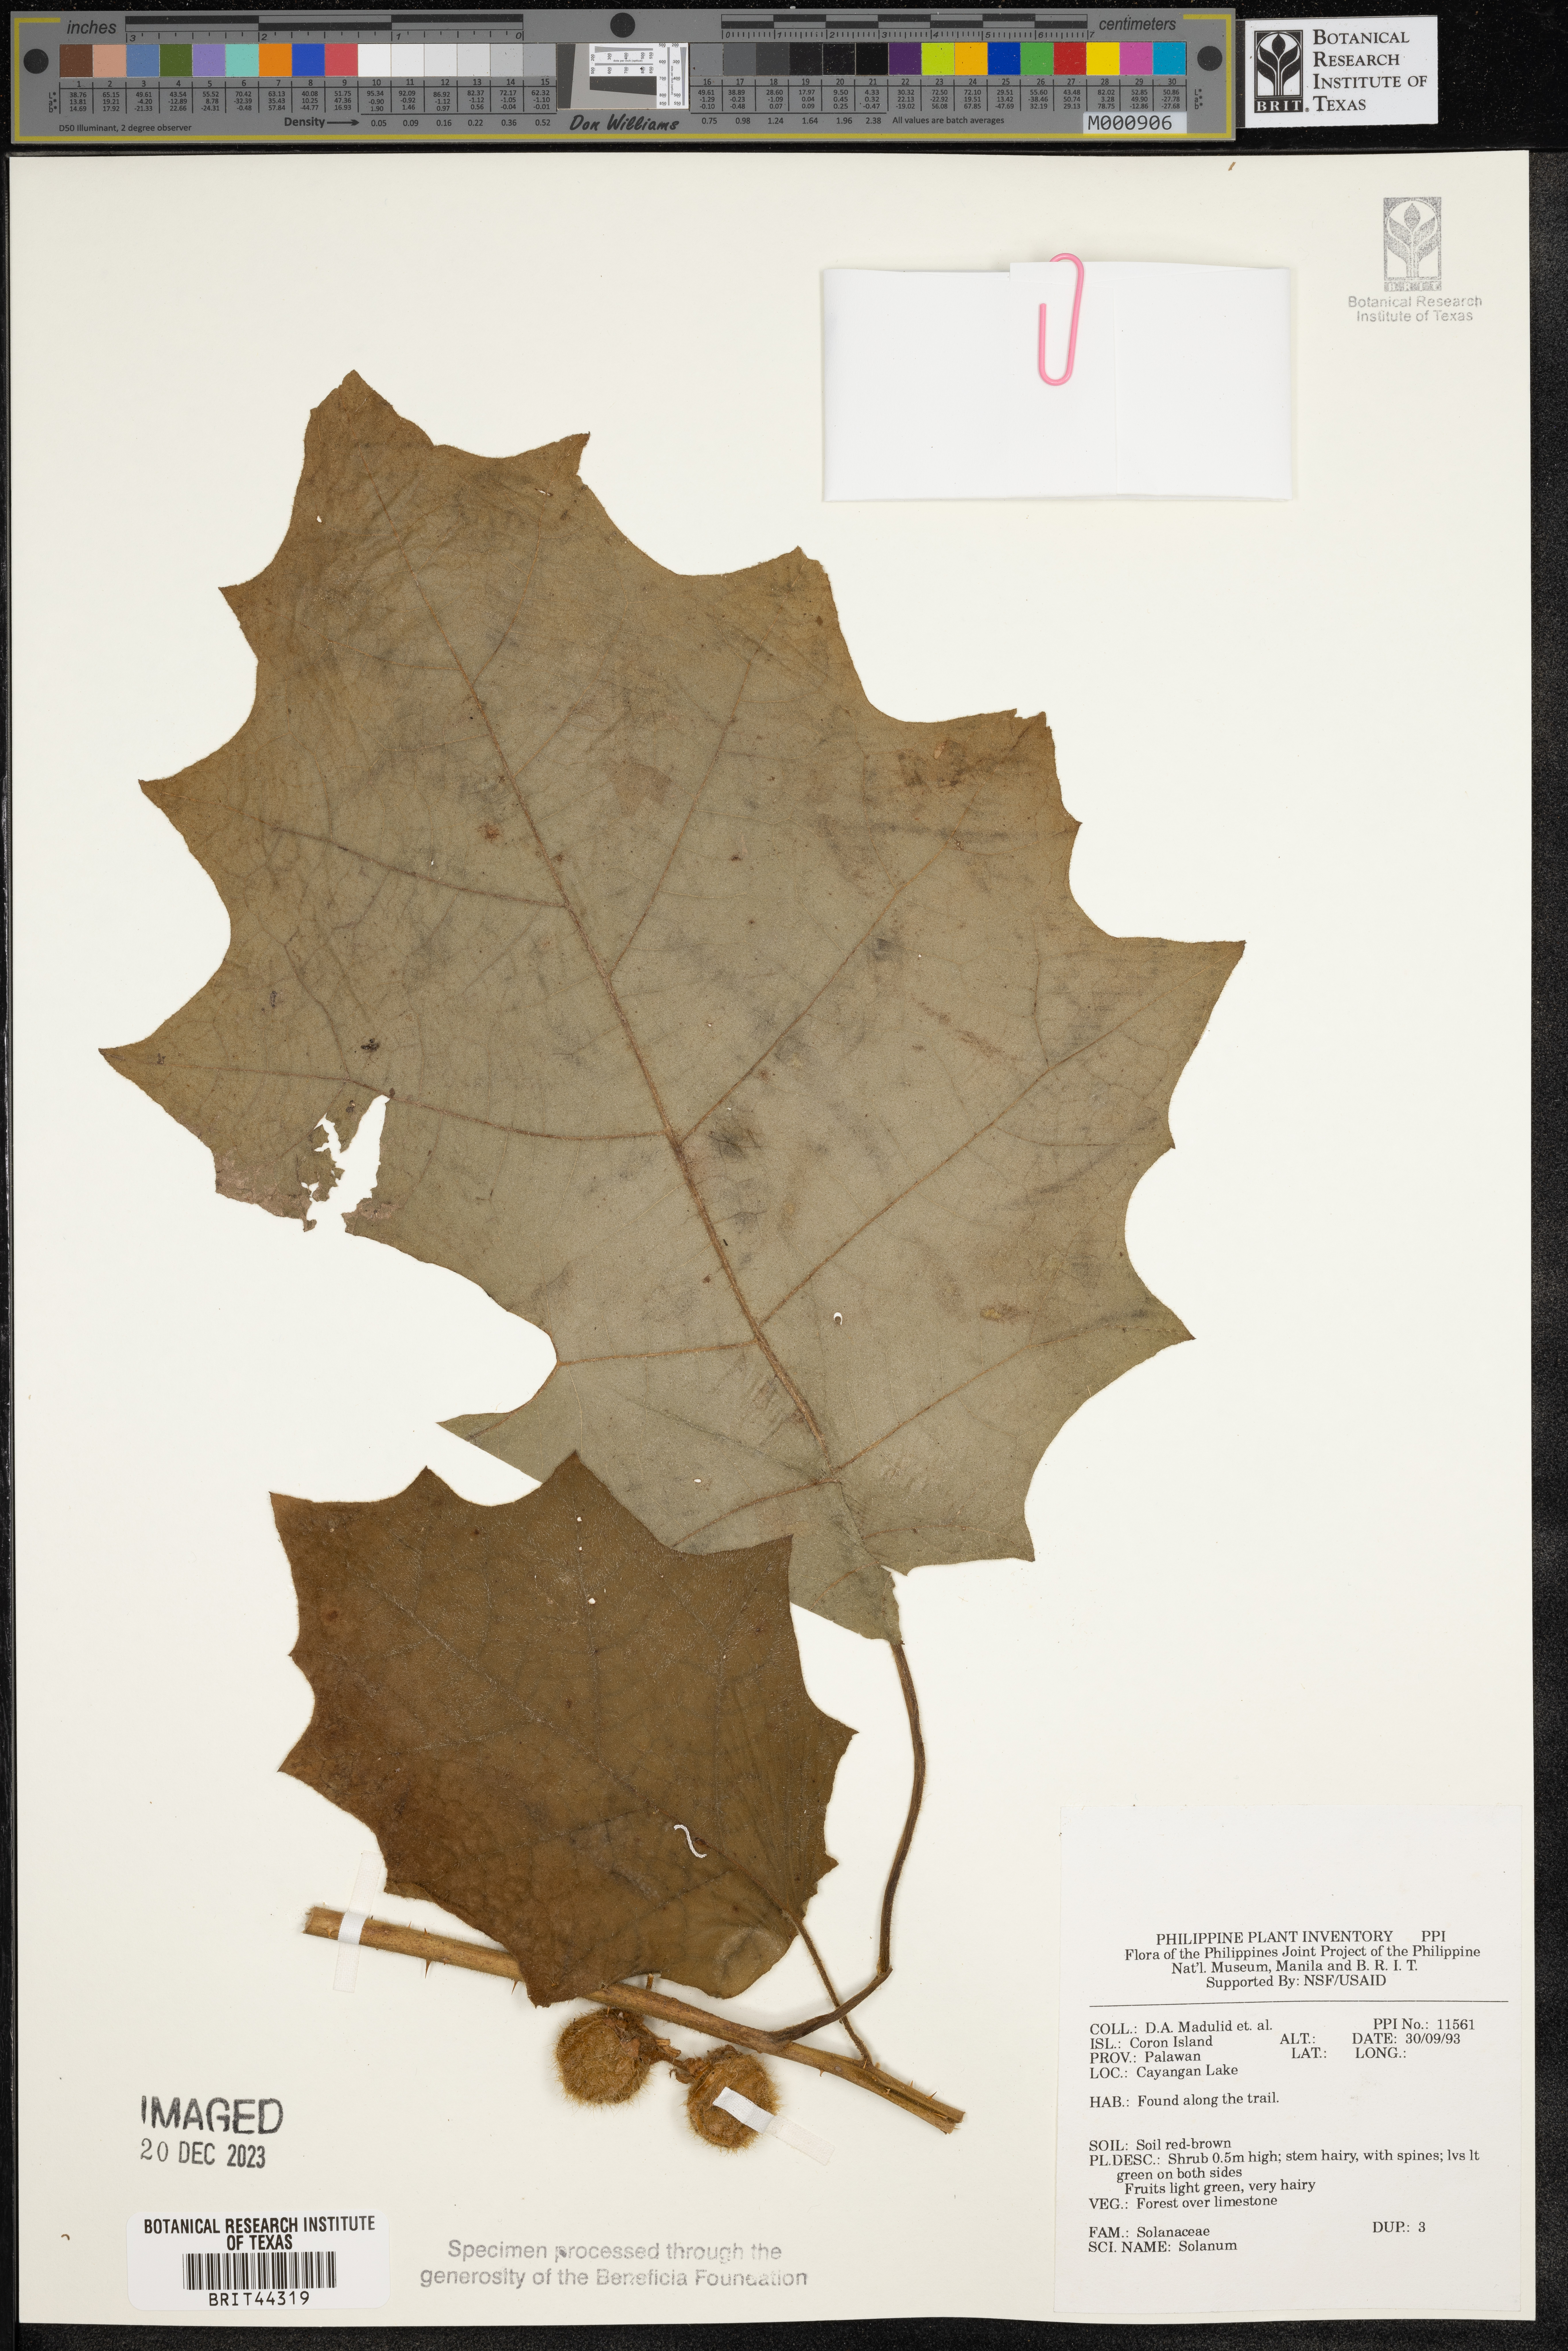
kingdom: Plantae
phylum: Tracheophyta
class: Magnoliopsida
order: Solanales
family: Solanaceae
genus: Solanum
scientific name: Solanum
